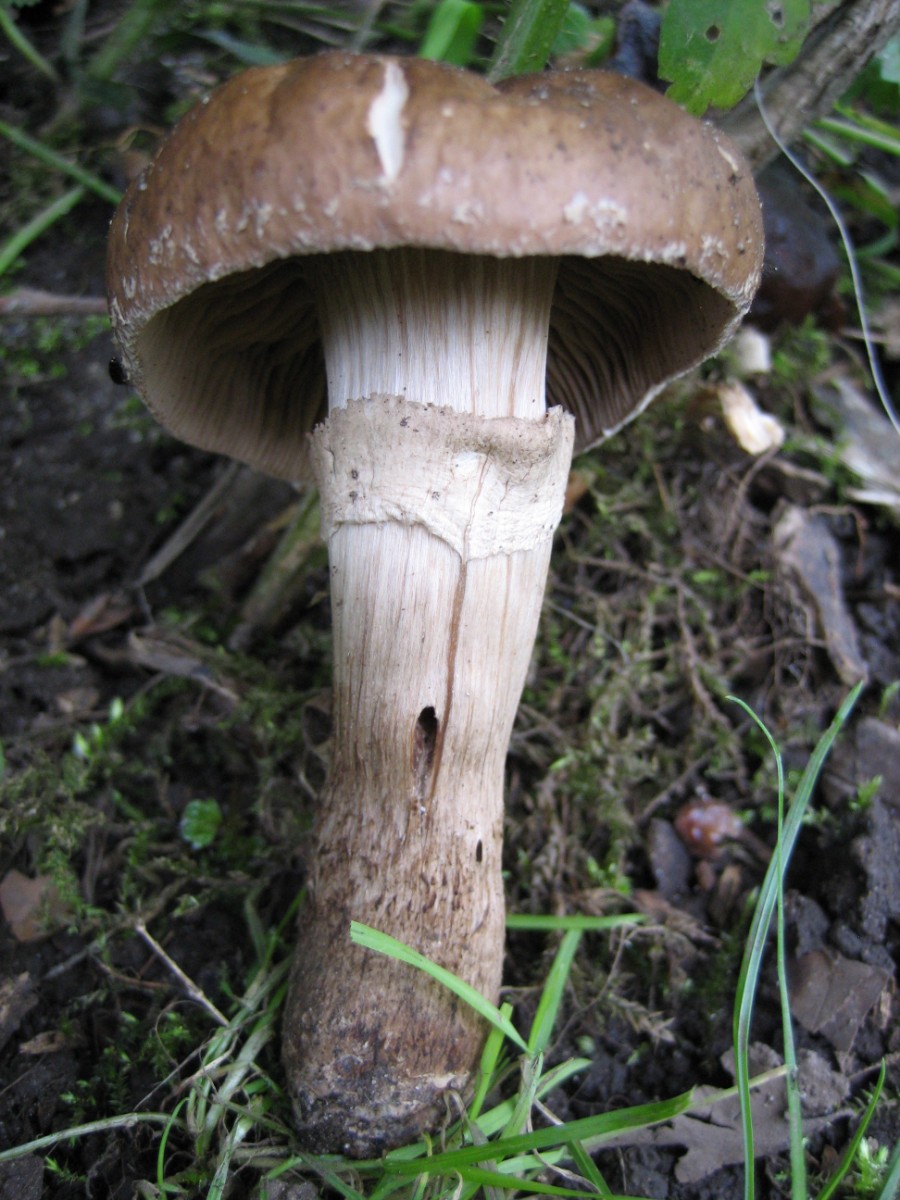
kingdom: Fungi
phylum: Basidiomycota
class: Agaricomycetes
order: Agaricales
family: Tubariaceae
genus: Cyclocybe
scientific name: Cyclocybe erebia
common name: mørk agerhat
